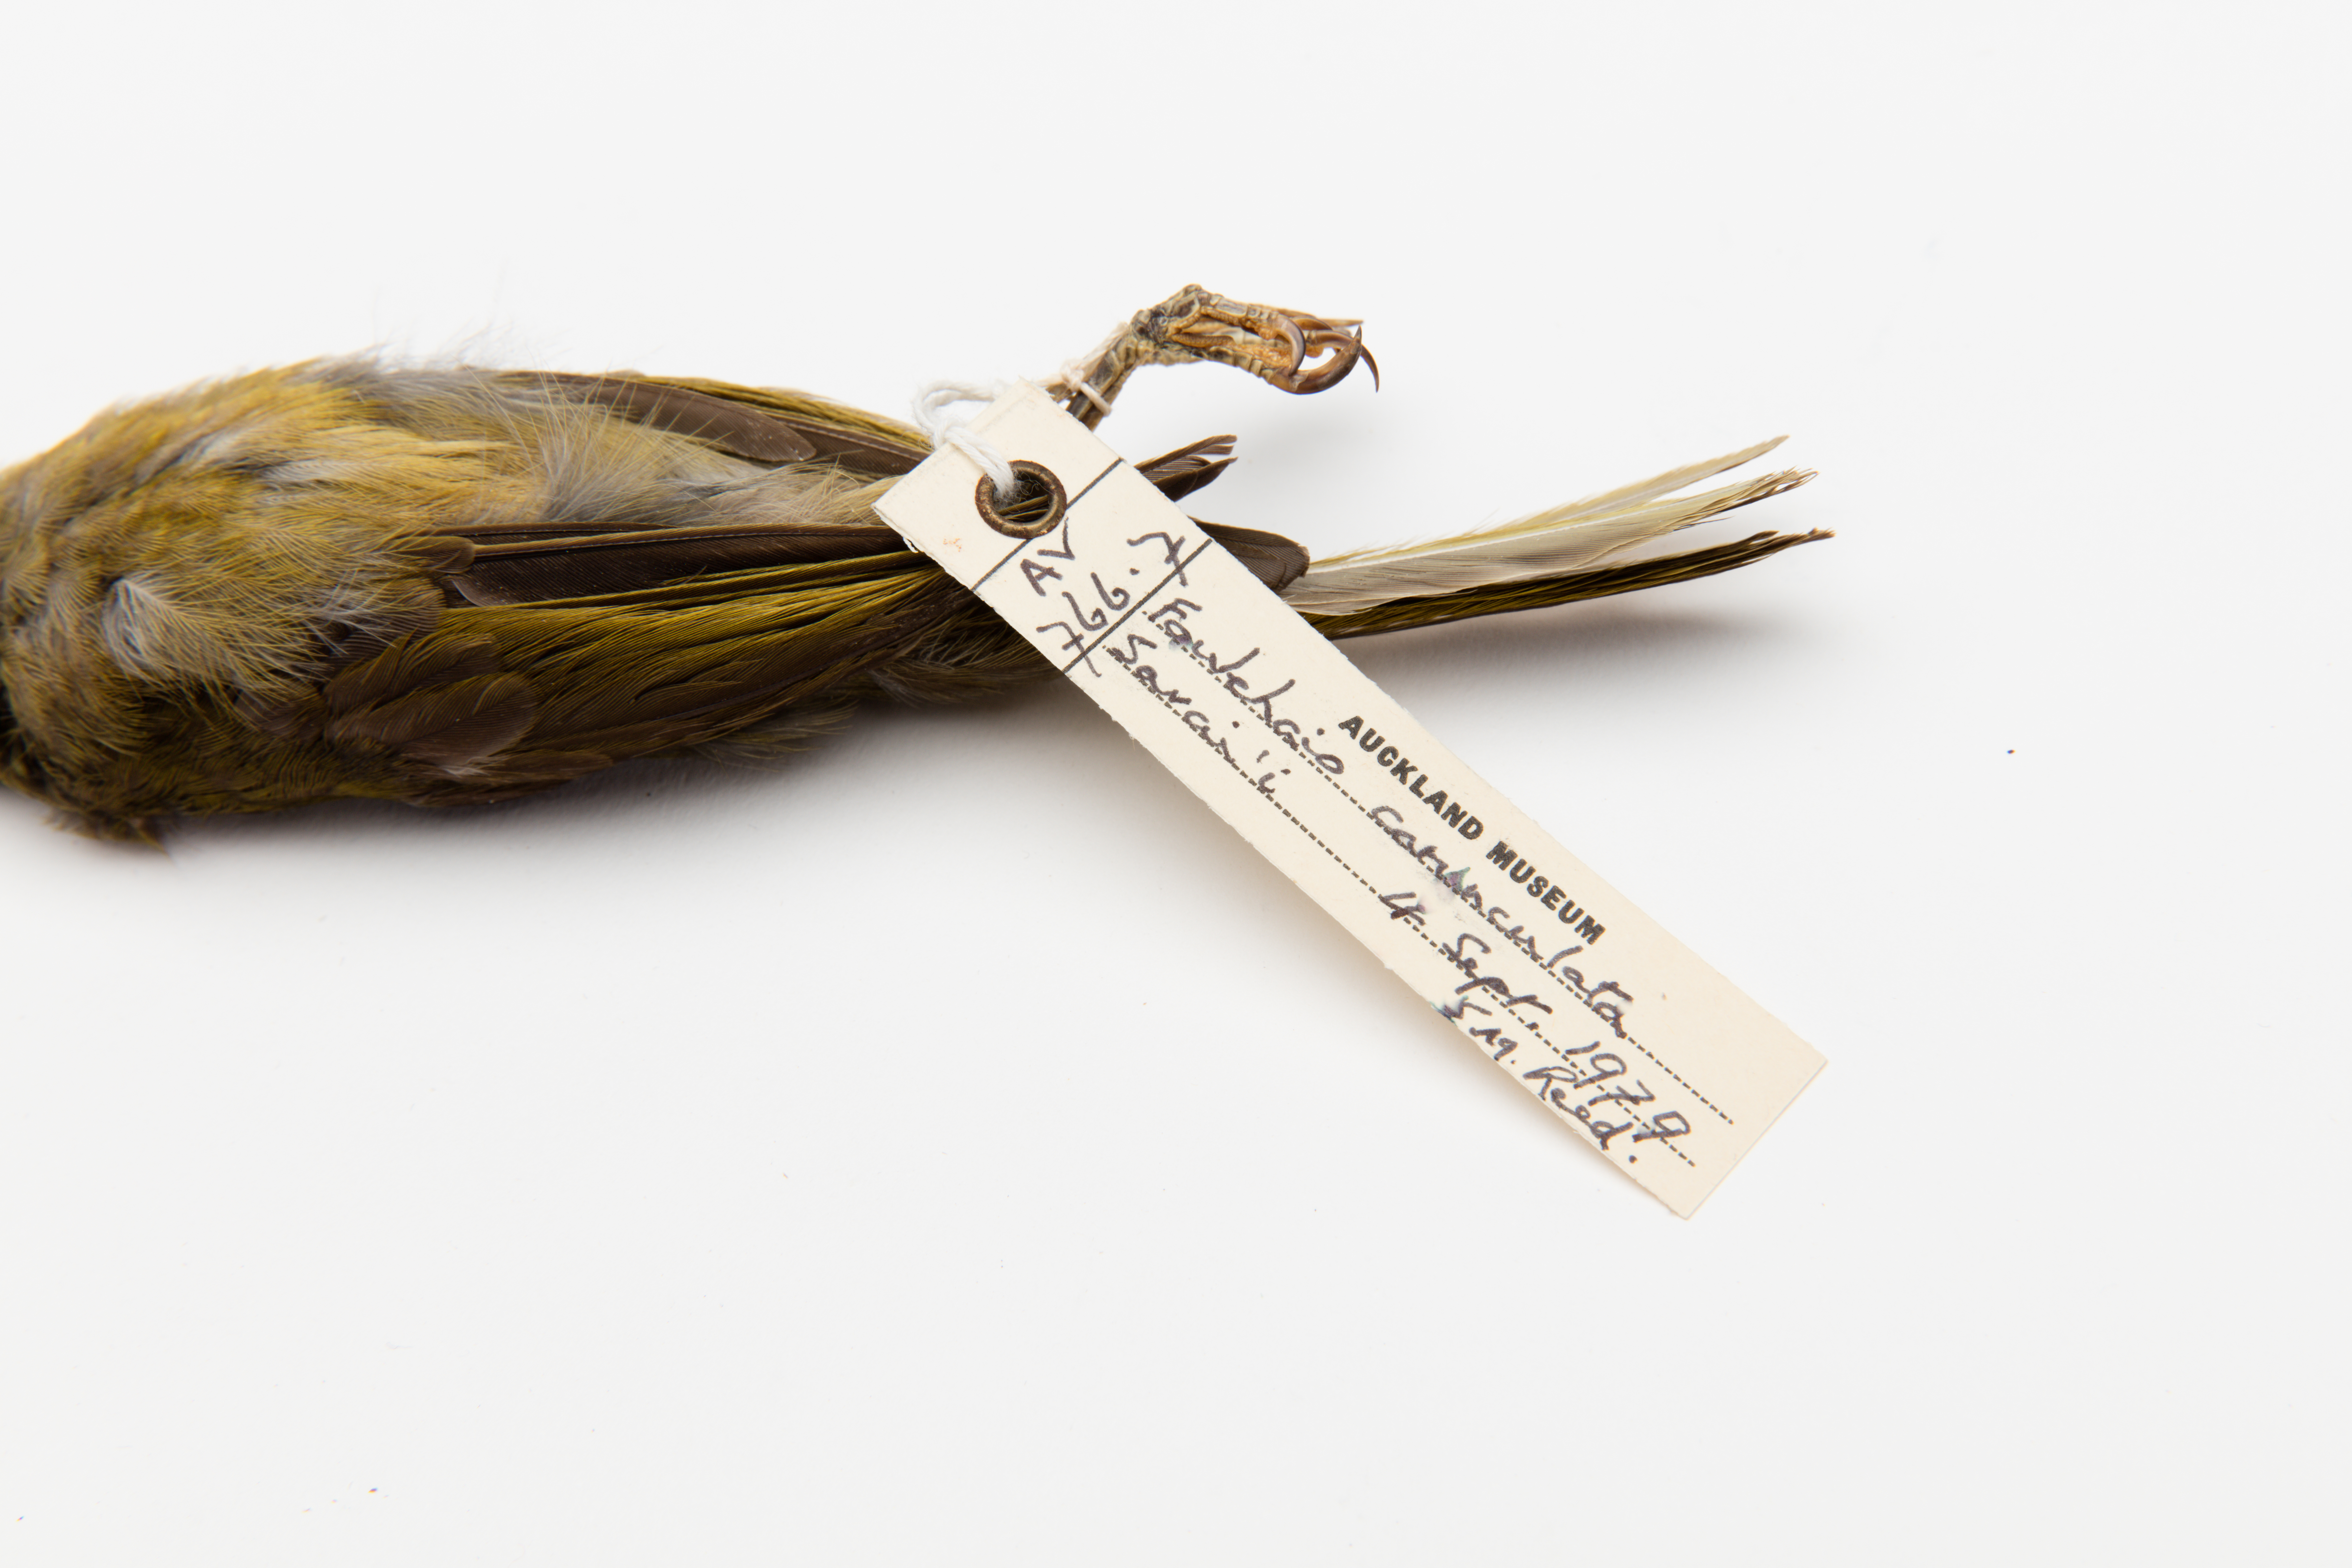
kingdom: Animalia
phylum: Chordata
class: Aves
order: Passeriformes
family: Meliphagidae
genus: Foulehaio
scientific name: Foulehaio carunculatus
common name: Eastern wattled-honeyeater
